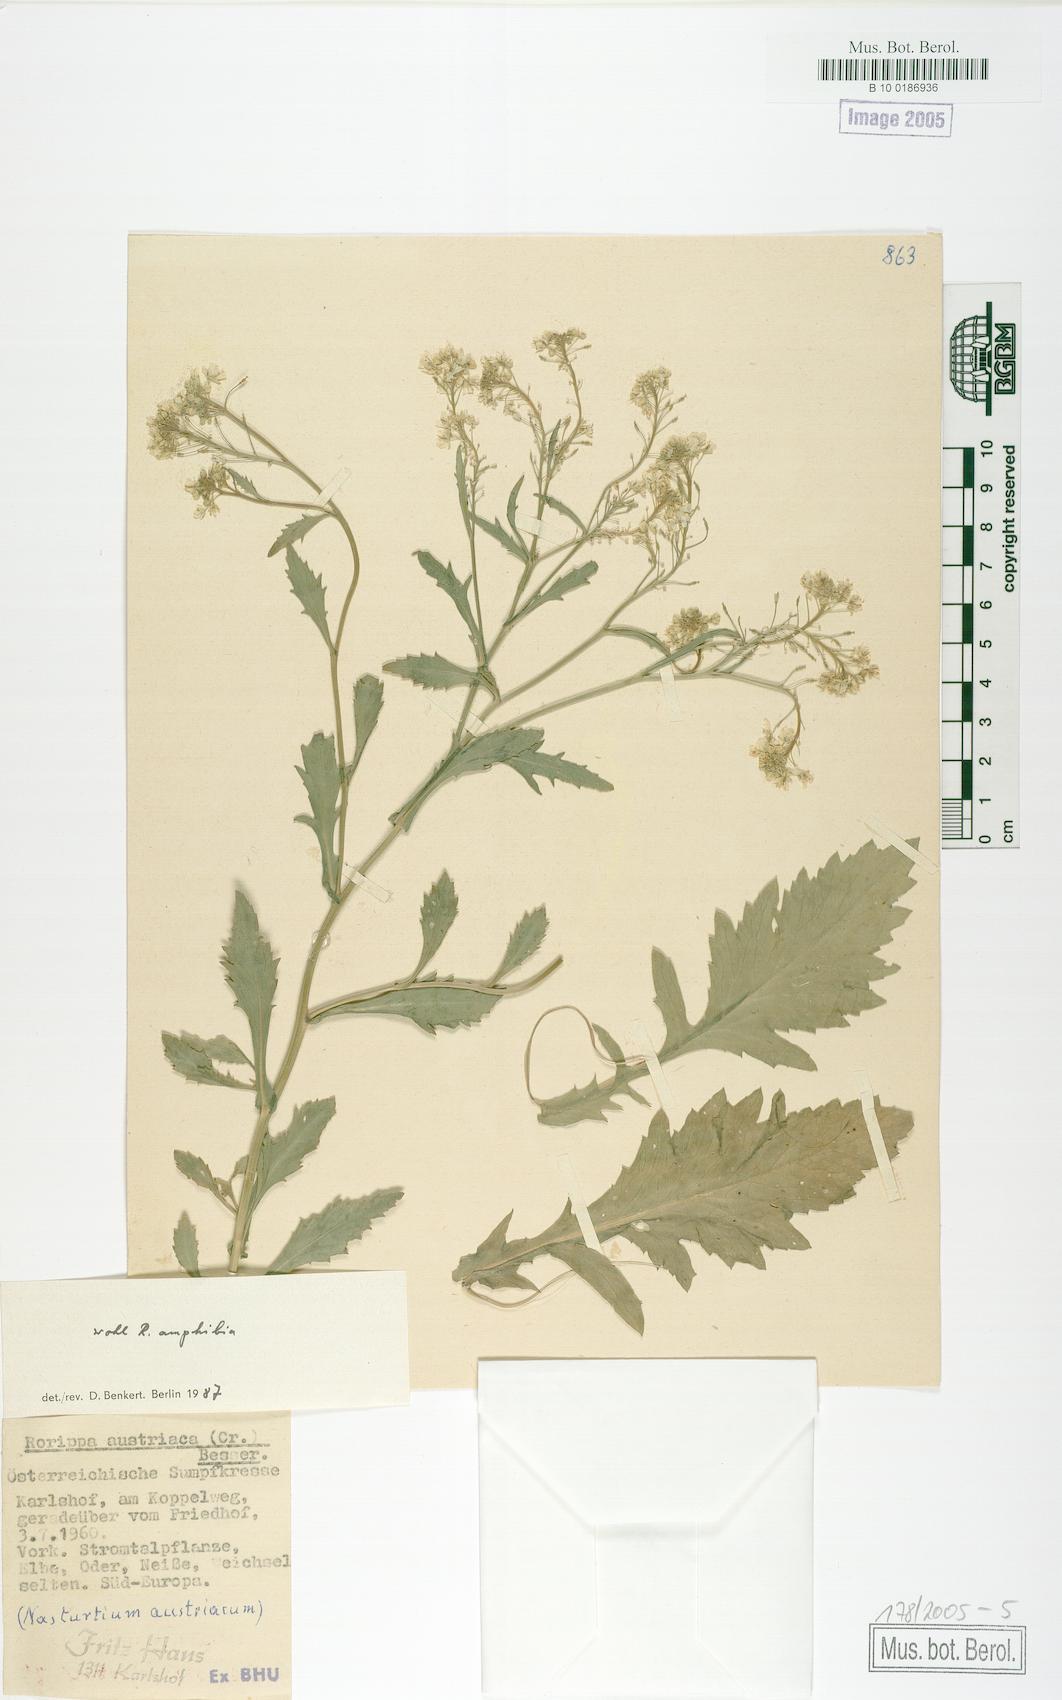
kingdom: Plantae
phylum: Tracheophyta
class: Magnoliopsida
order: Brassicales
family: Brassicaceae
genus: Rorippa
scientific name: Rorippa austriaca
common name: Austrian yellow-cress
